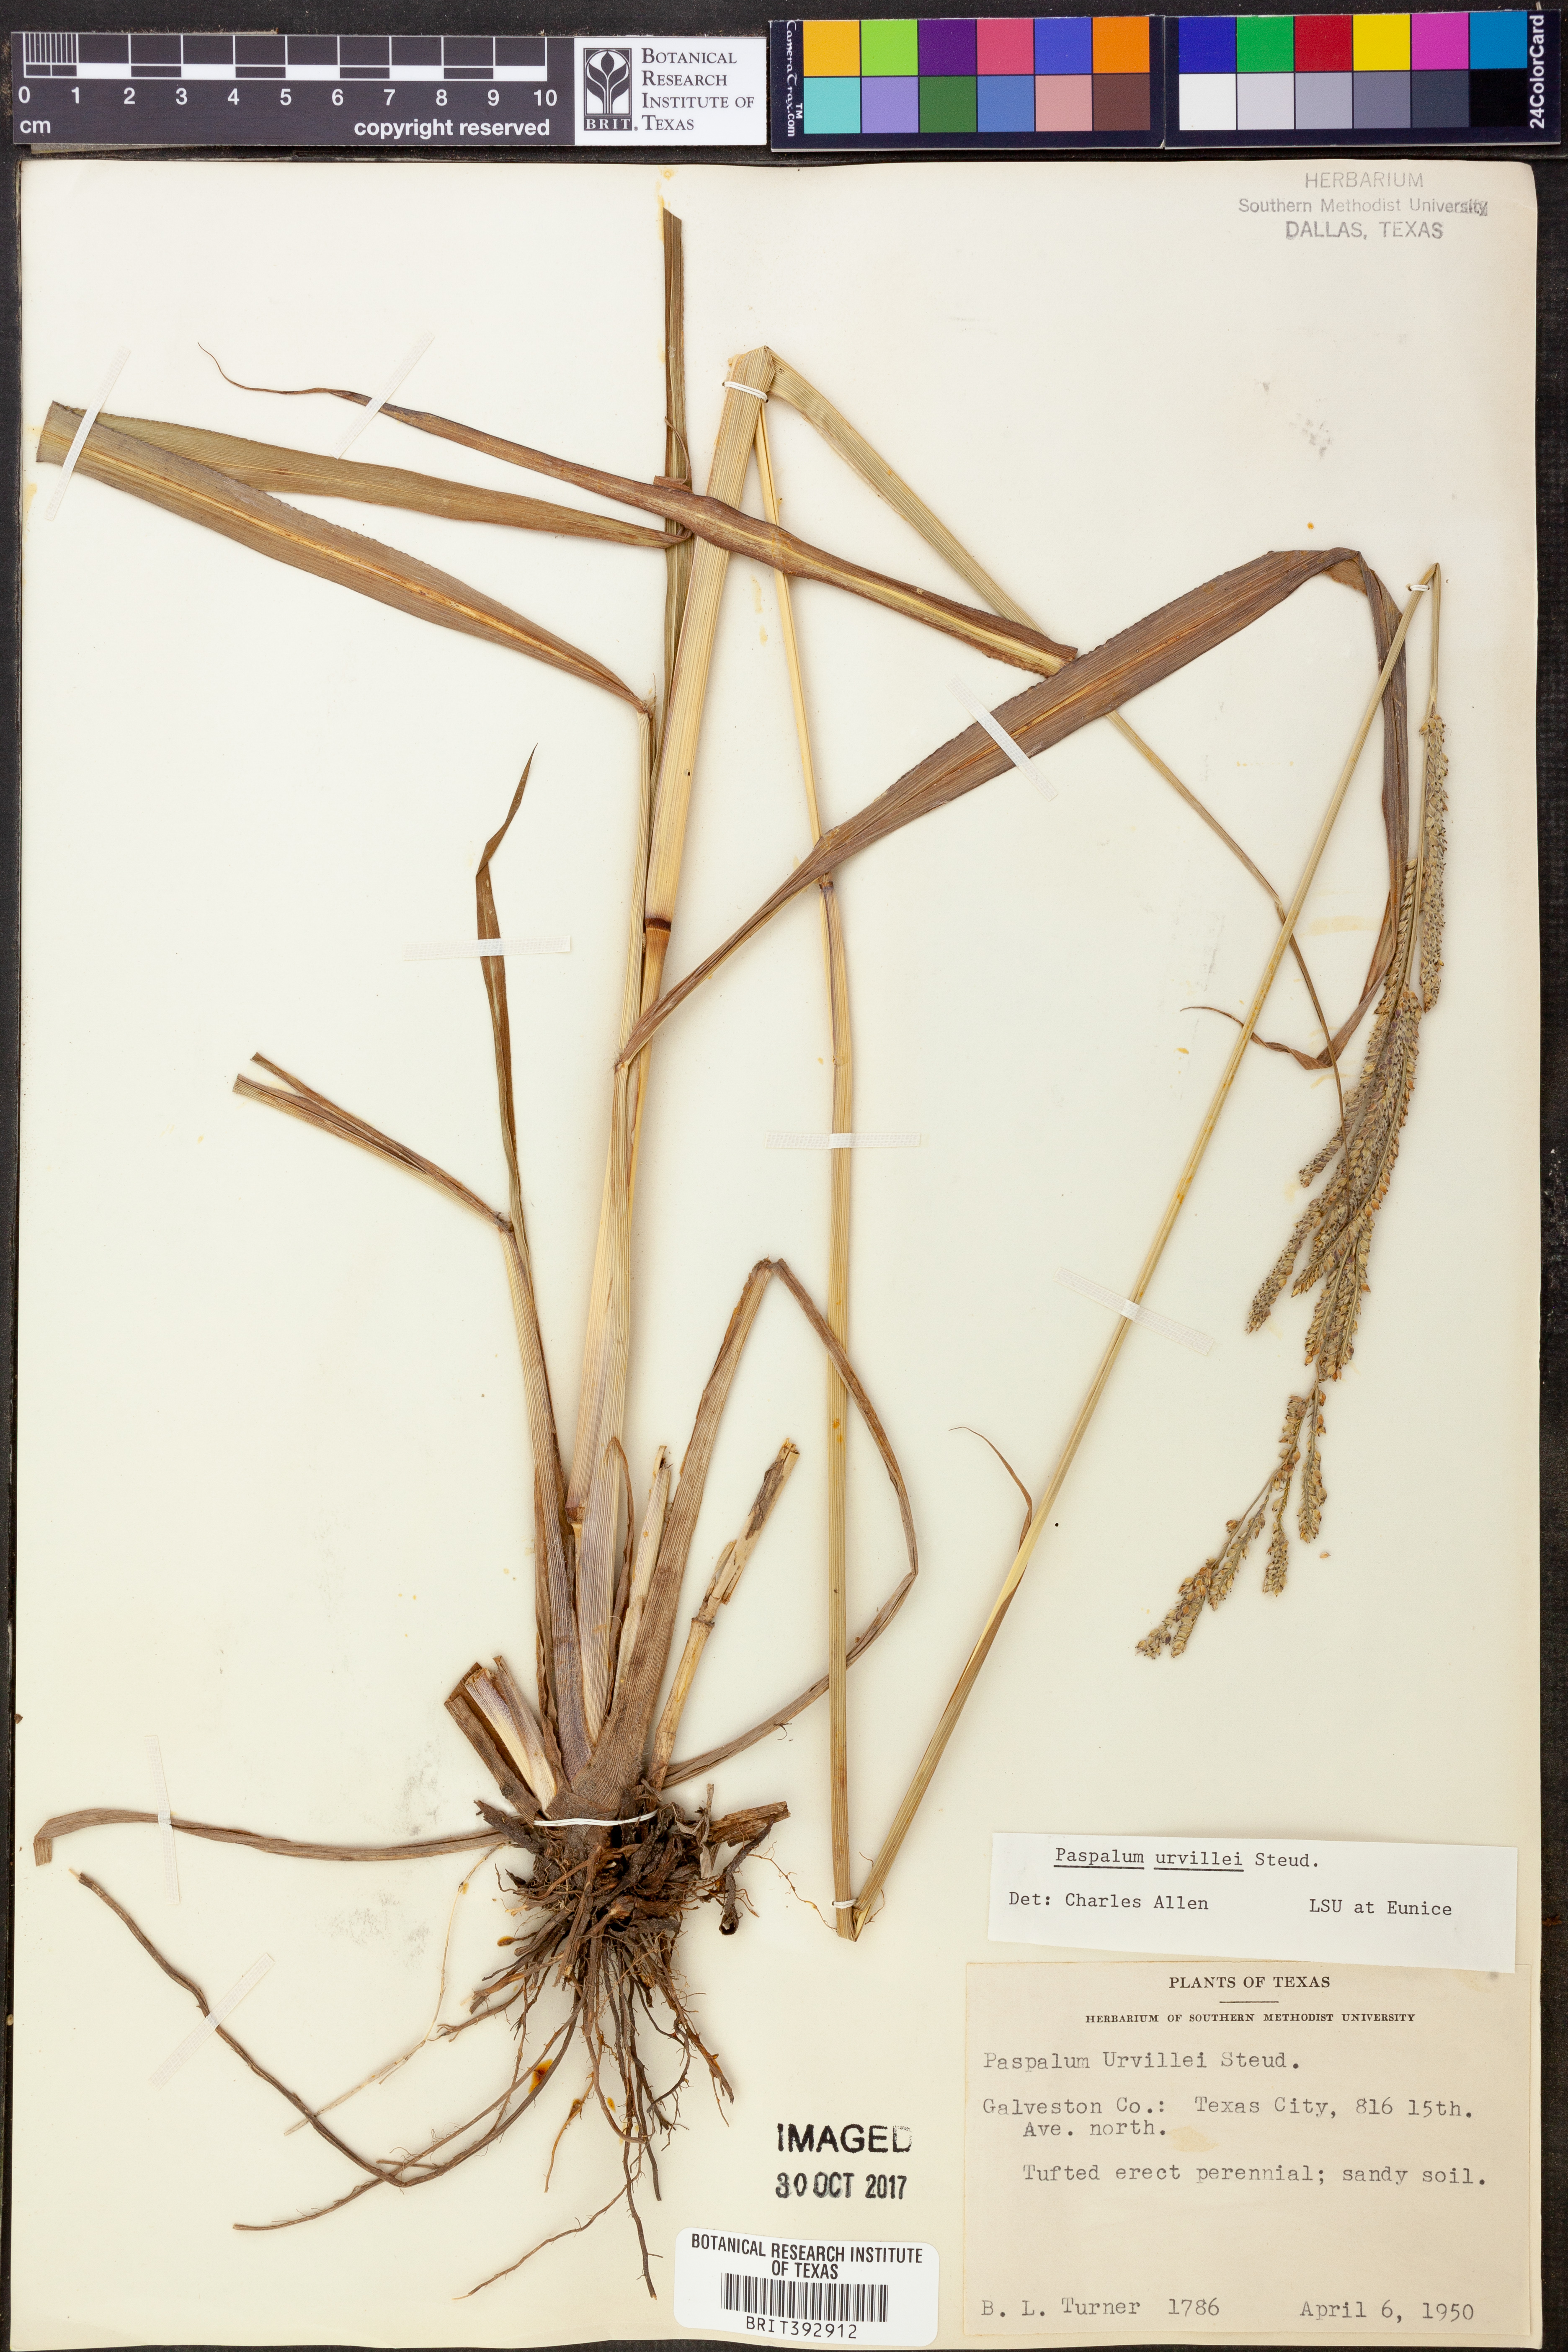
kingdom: Plantae
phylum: Tracheophyta
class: Liliopsida
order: Poales
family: Poaceae
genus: Paspalum
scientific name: Paspalum urvillei
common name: Vasey's grass
